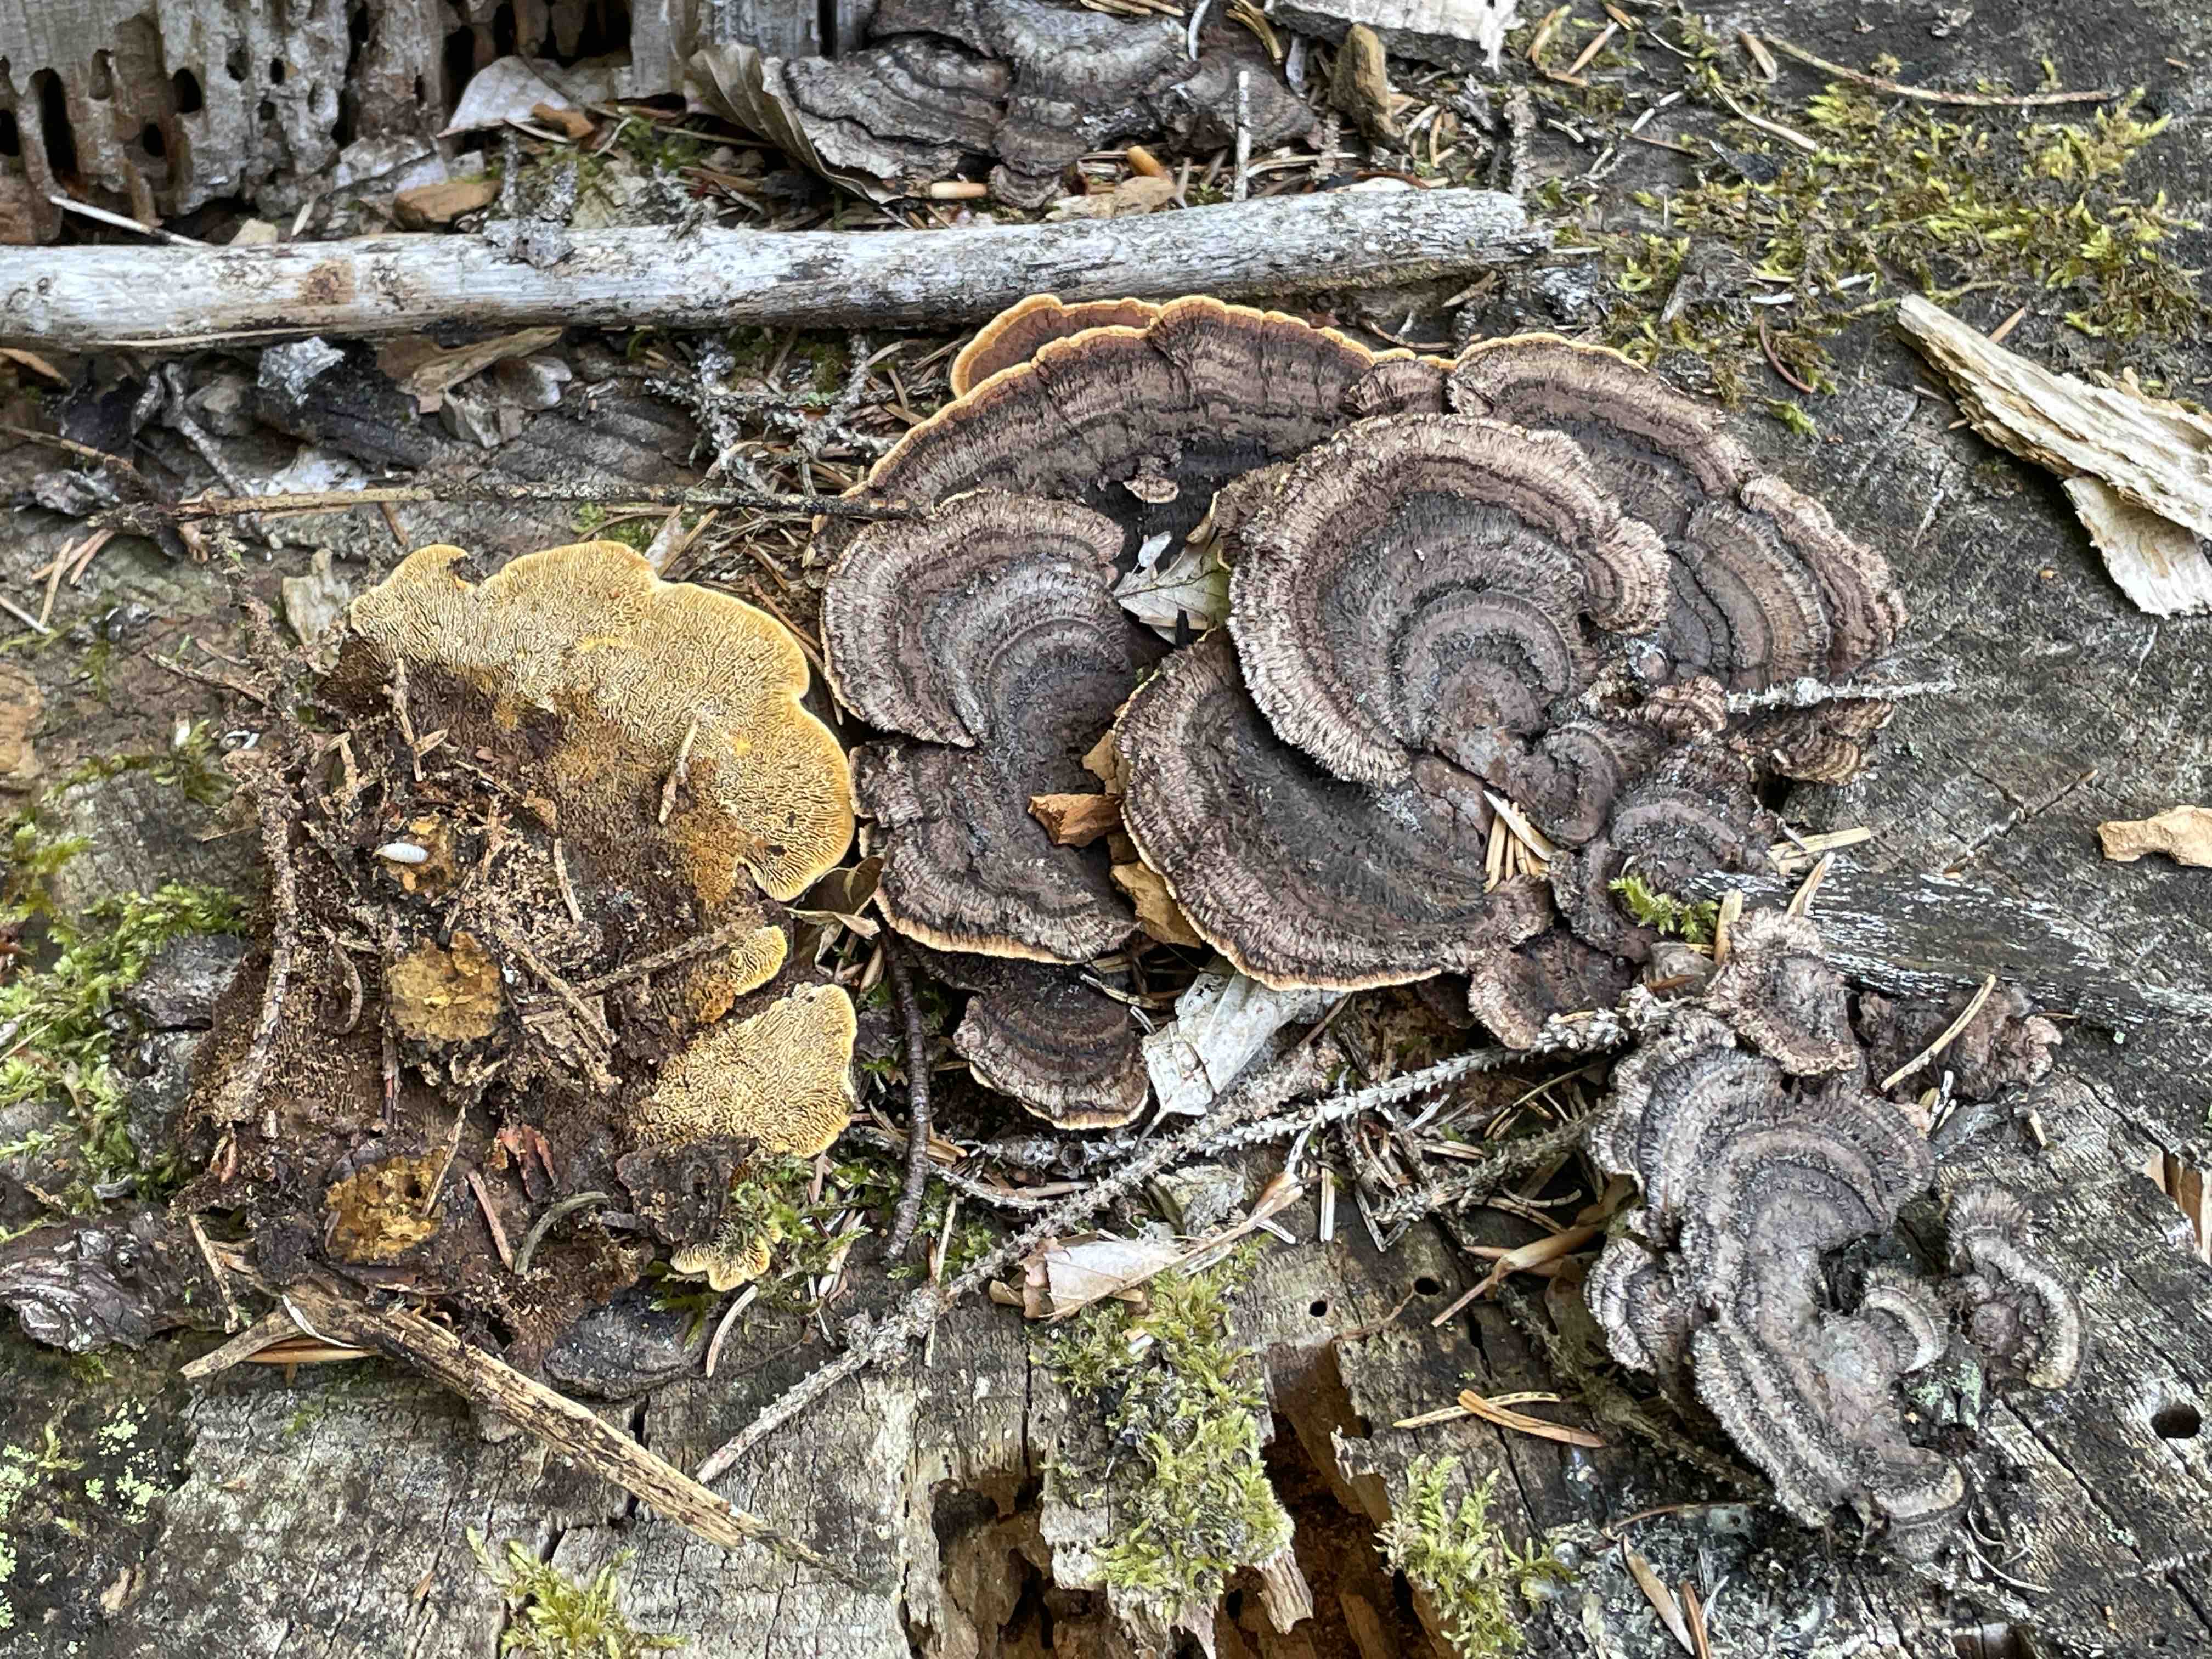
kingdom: Fungi
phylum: Basidiomycota
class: Agaricomycetes
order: Gloeophyllales
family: Gloeophyllaceae
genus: Gloeophyllum
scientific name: Gloeophyllum sepiarium
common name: fyrre-korkhat
